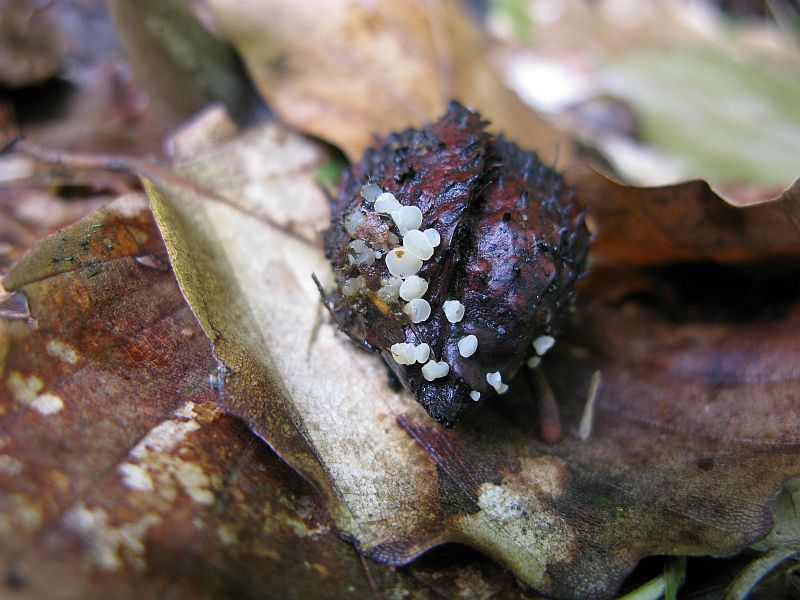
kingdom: Fungi
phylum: Ascomycota
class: Leotiomycetes
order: Helotiales
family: Helotiaceae
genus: Hymenoscyphus
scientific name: Hymenoscyphus fagineus
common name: vellugtende stilkskive
